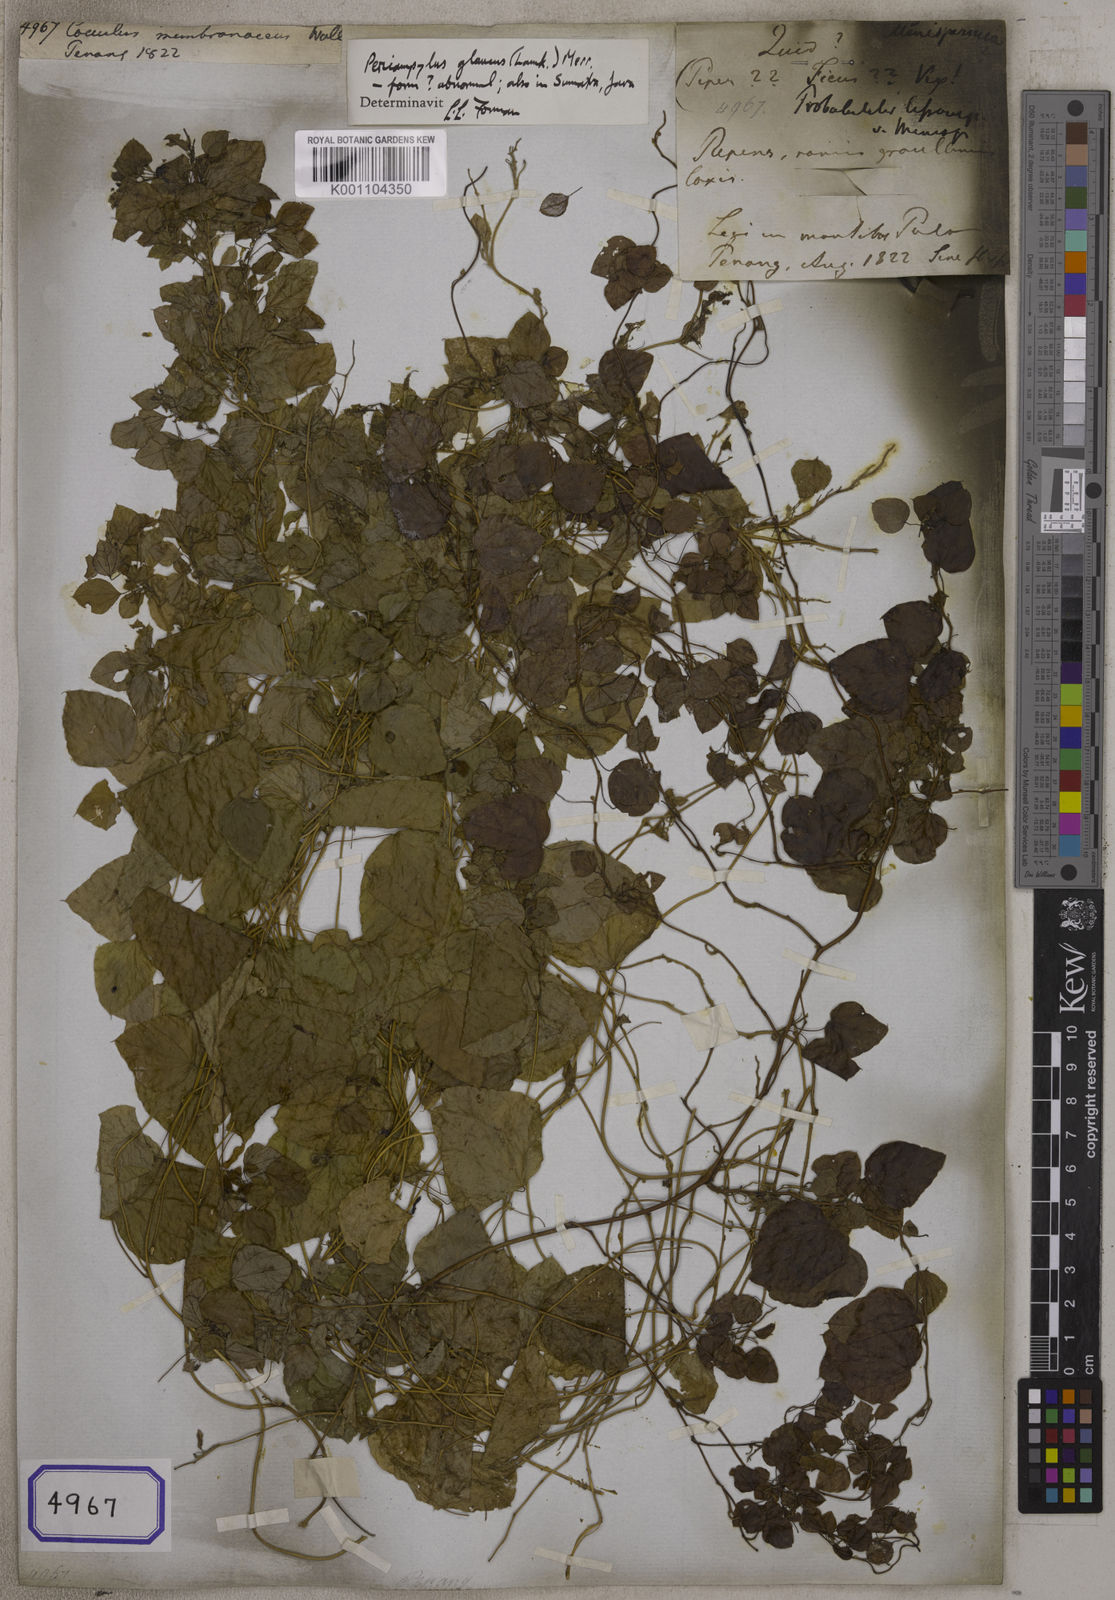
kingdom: Plantae
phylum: Tracheophyta
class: Magnoliopsida
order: Ranunculales
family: Menispermaceae
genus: Cissampelos
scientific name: Cissampelos pareira
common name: Velvetleaf
